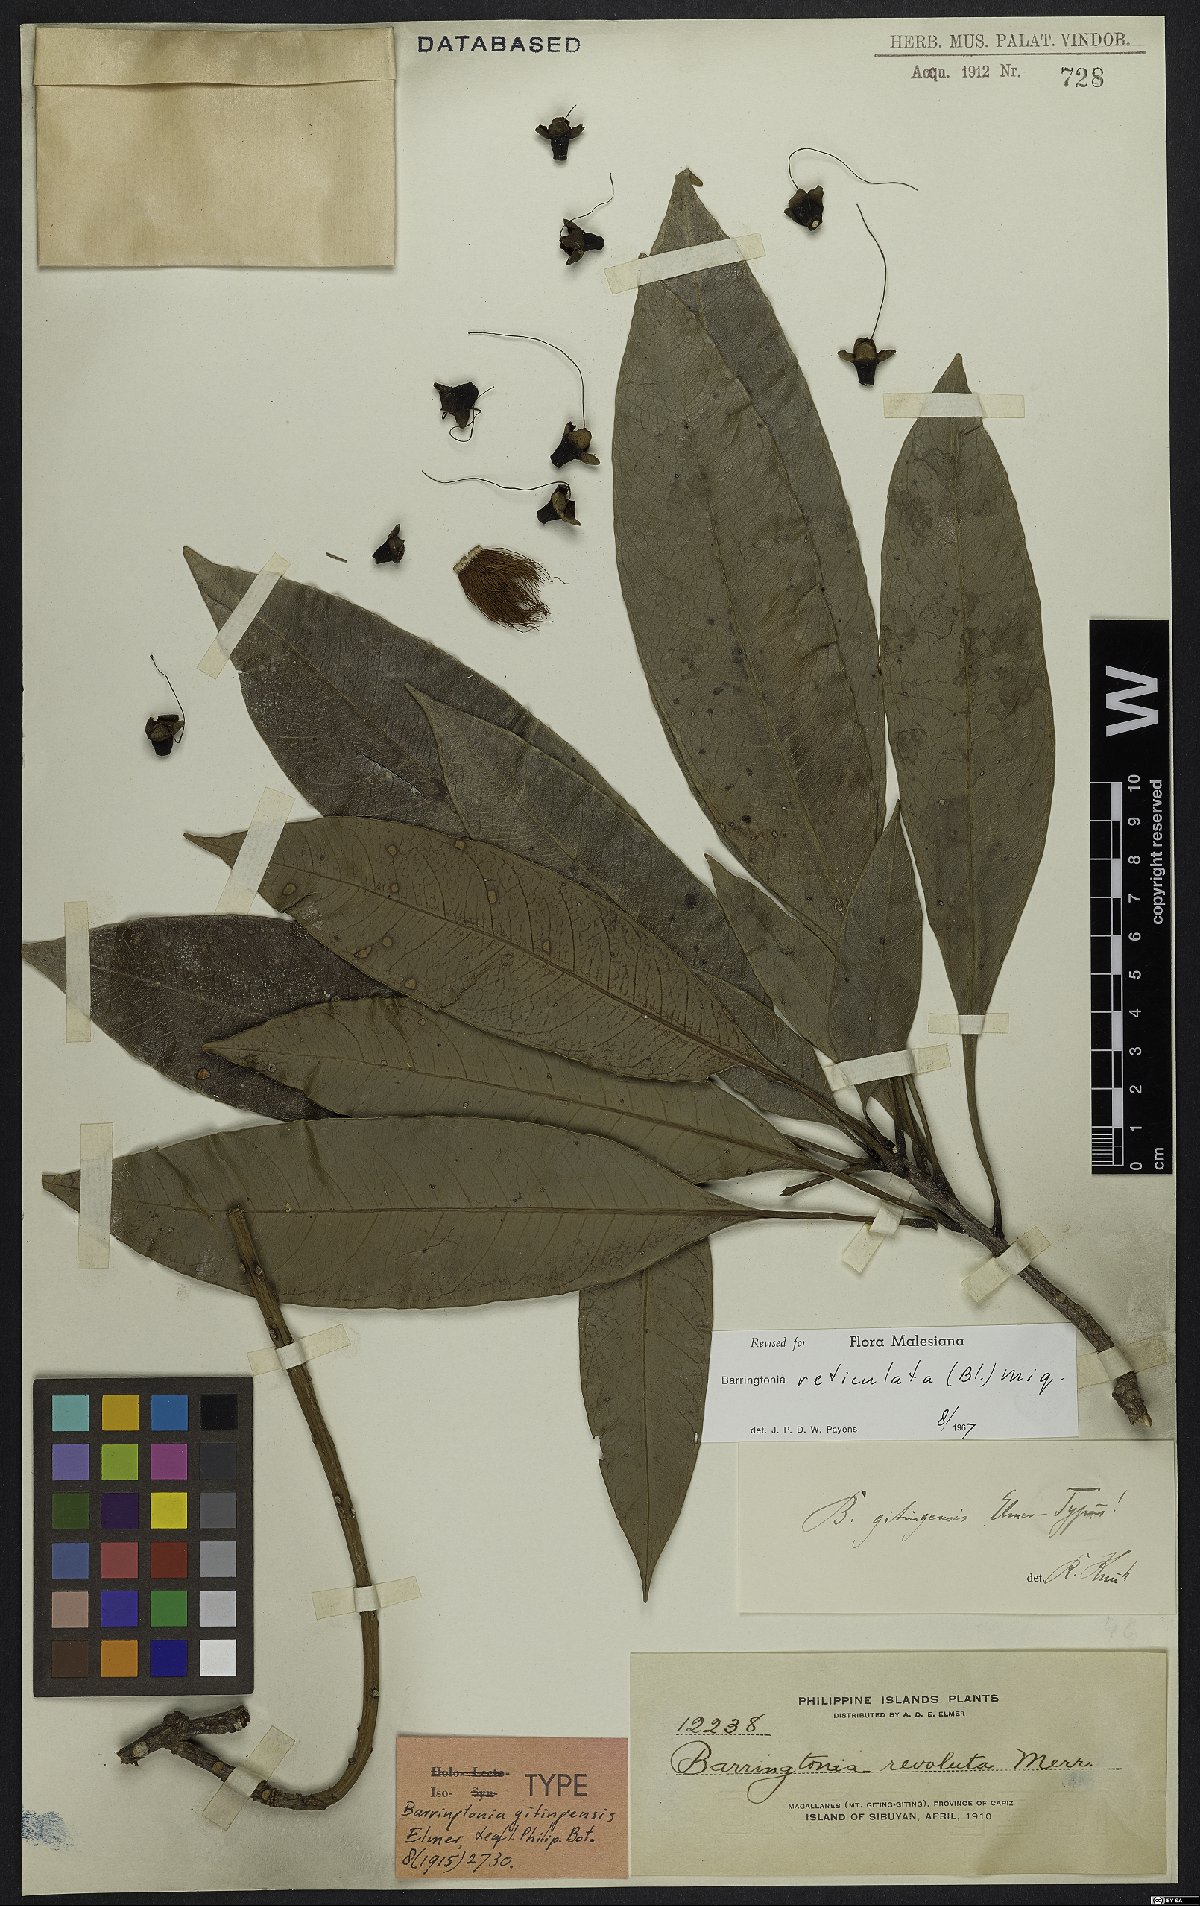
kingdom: Plantae
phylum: Tracheophyta
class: Magnoliopsida
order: Ericales
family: Lecythidaceae
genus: Barringtonia
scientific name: Barringtonia reticulata
